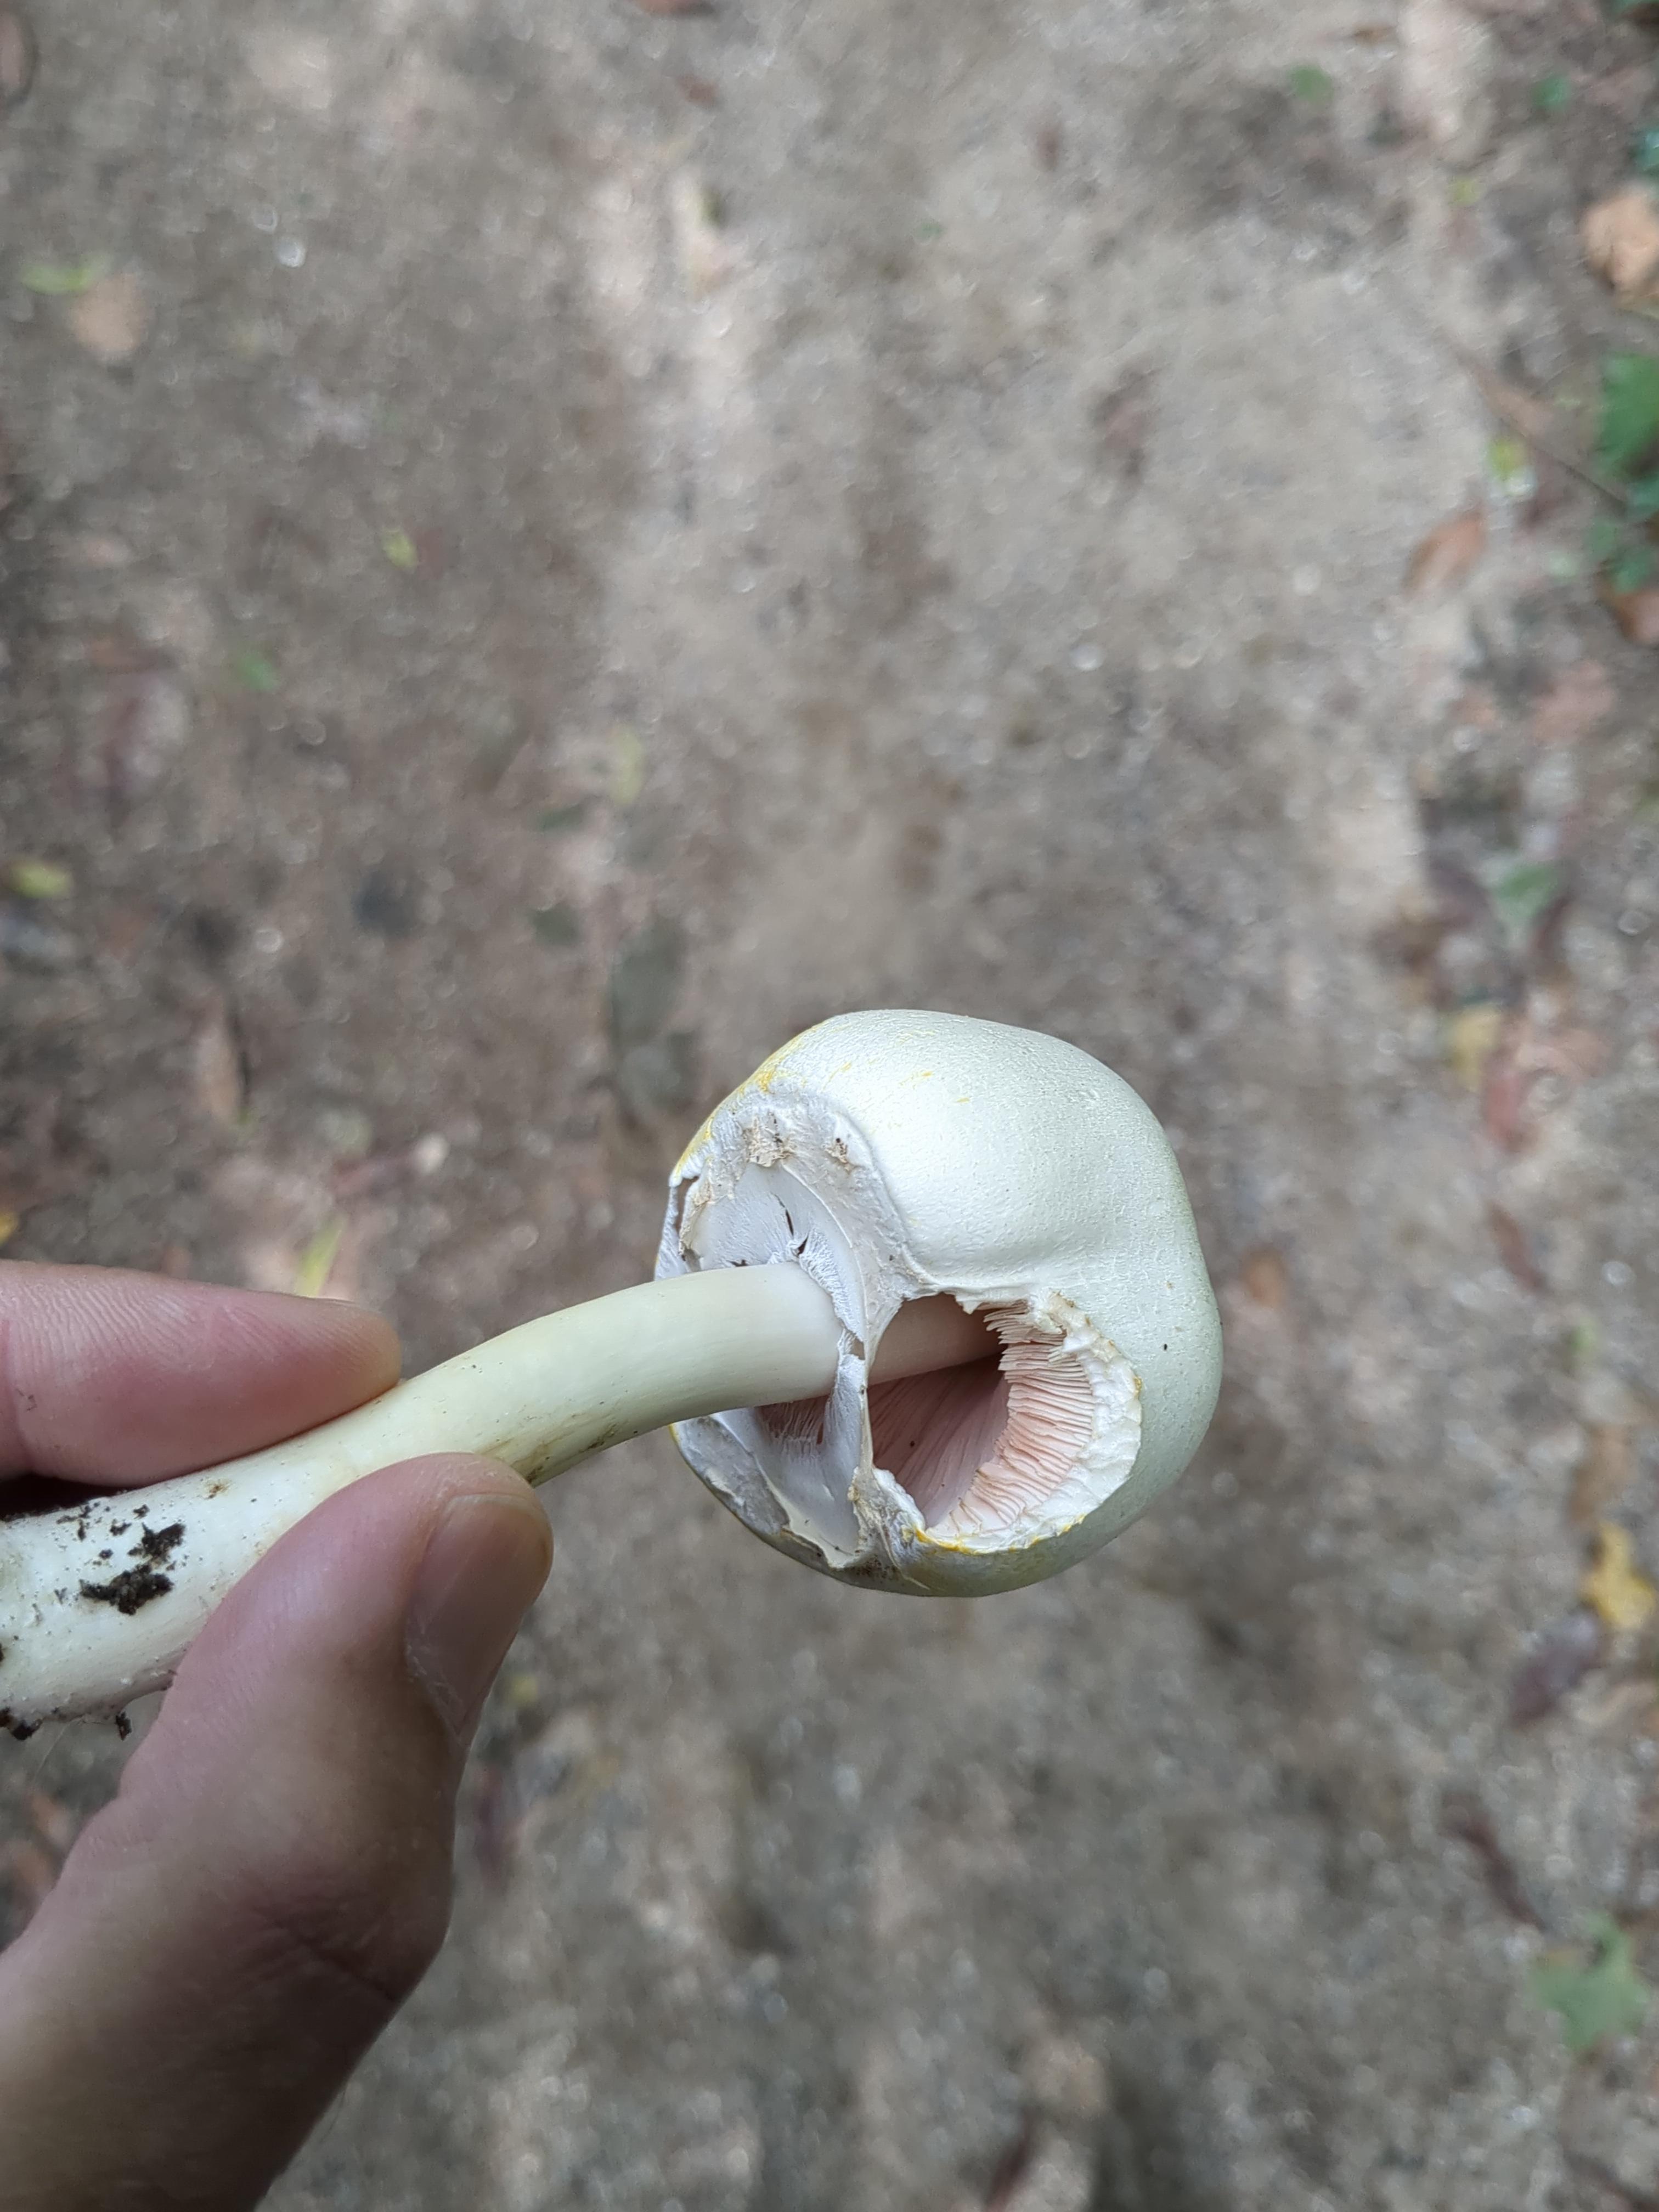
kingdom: Fungi
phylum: Basidiomycota
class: Agaricomycetes
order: Agaricales
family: Agaricaceae
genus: Agaricus
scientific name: Agaricus xanthodermus
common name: karbol-champignon
